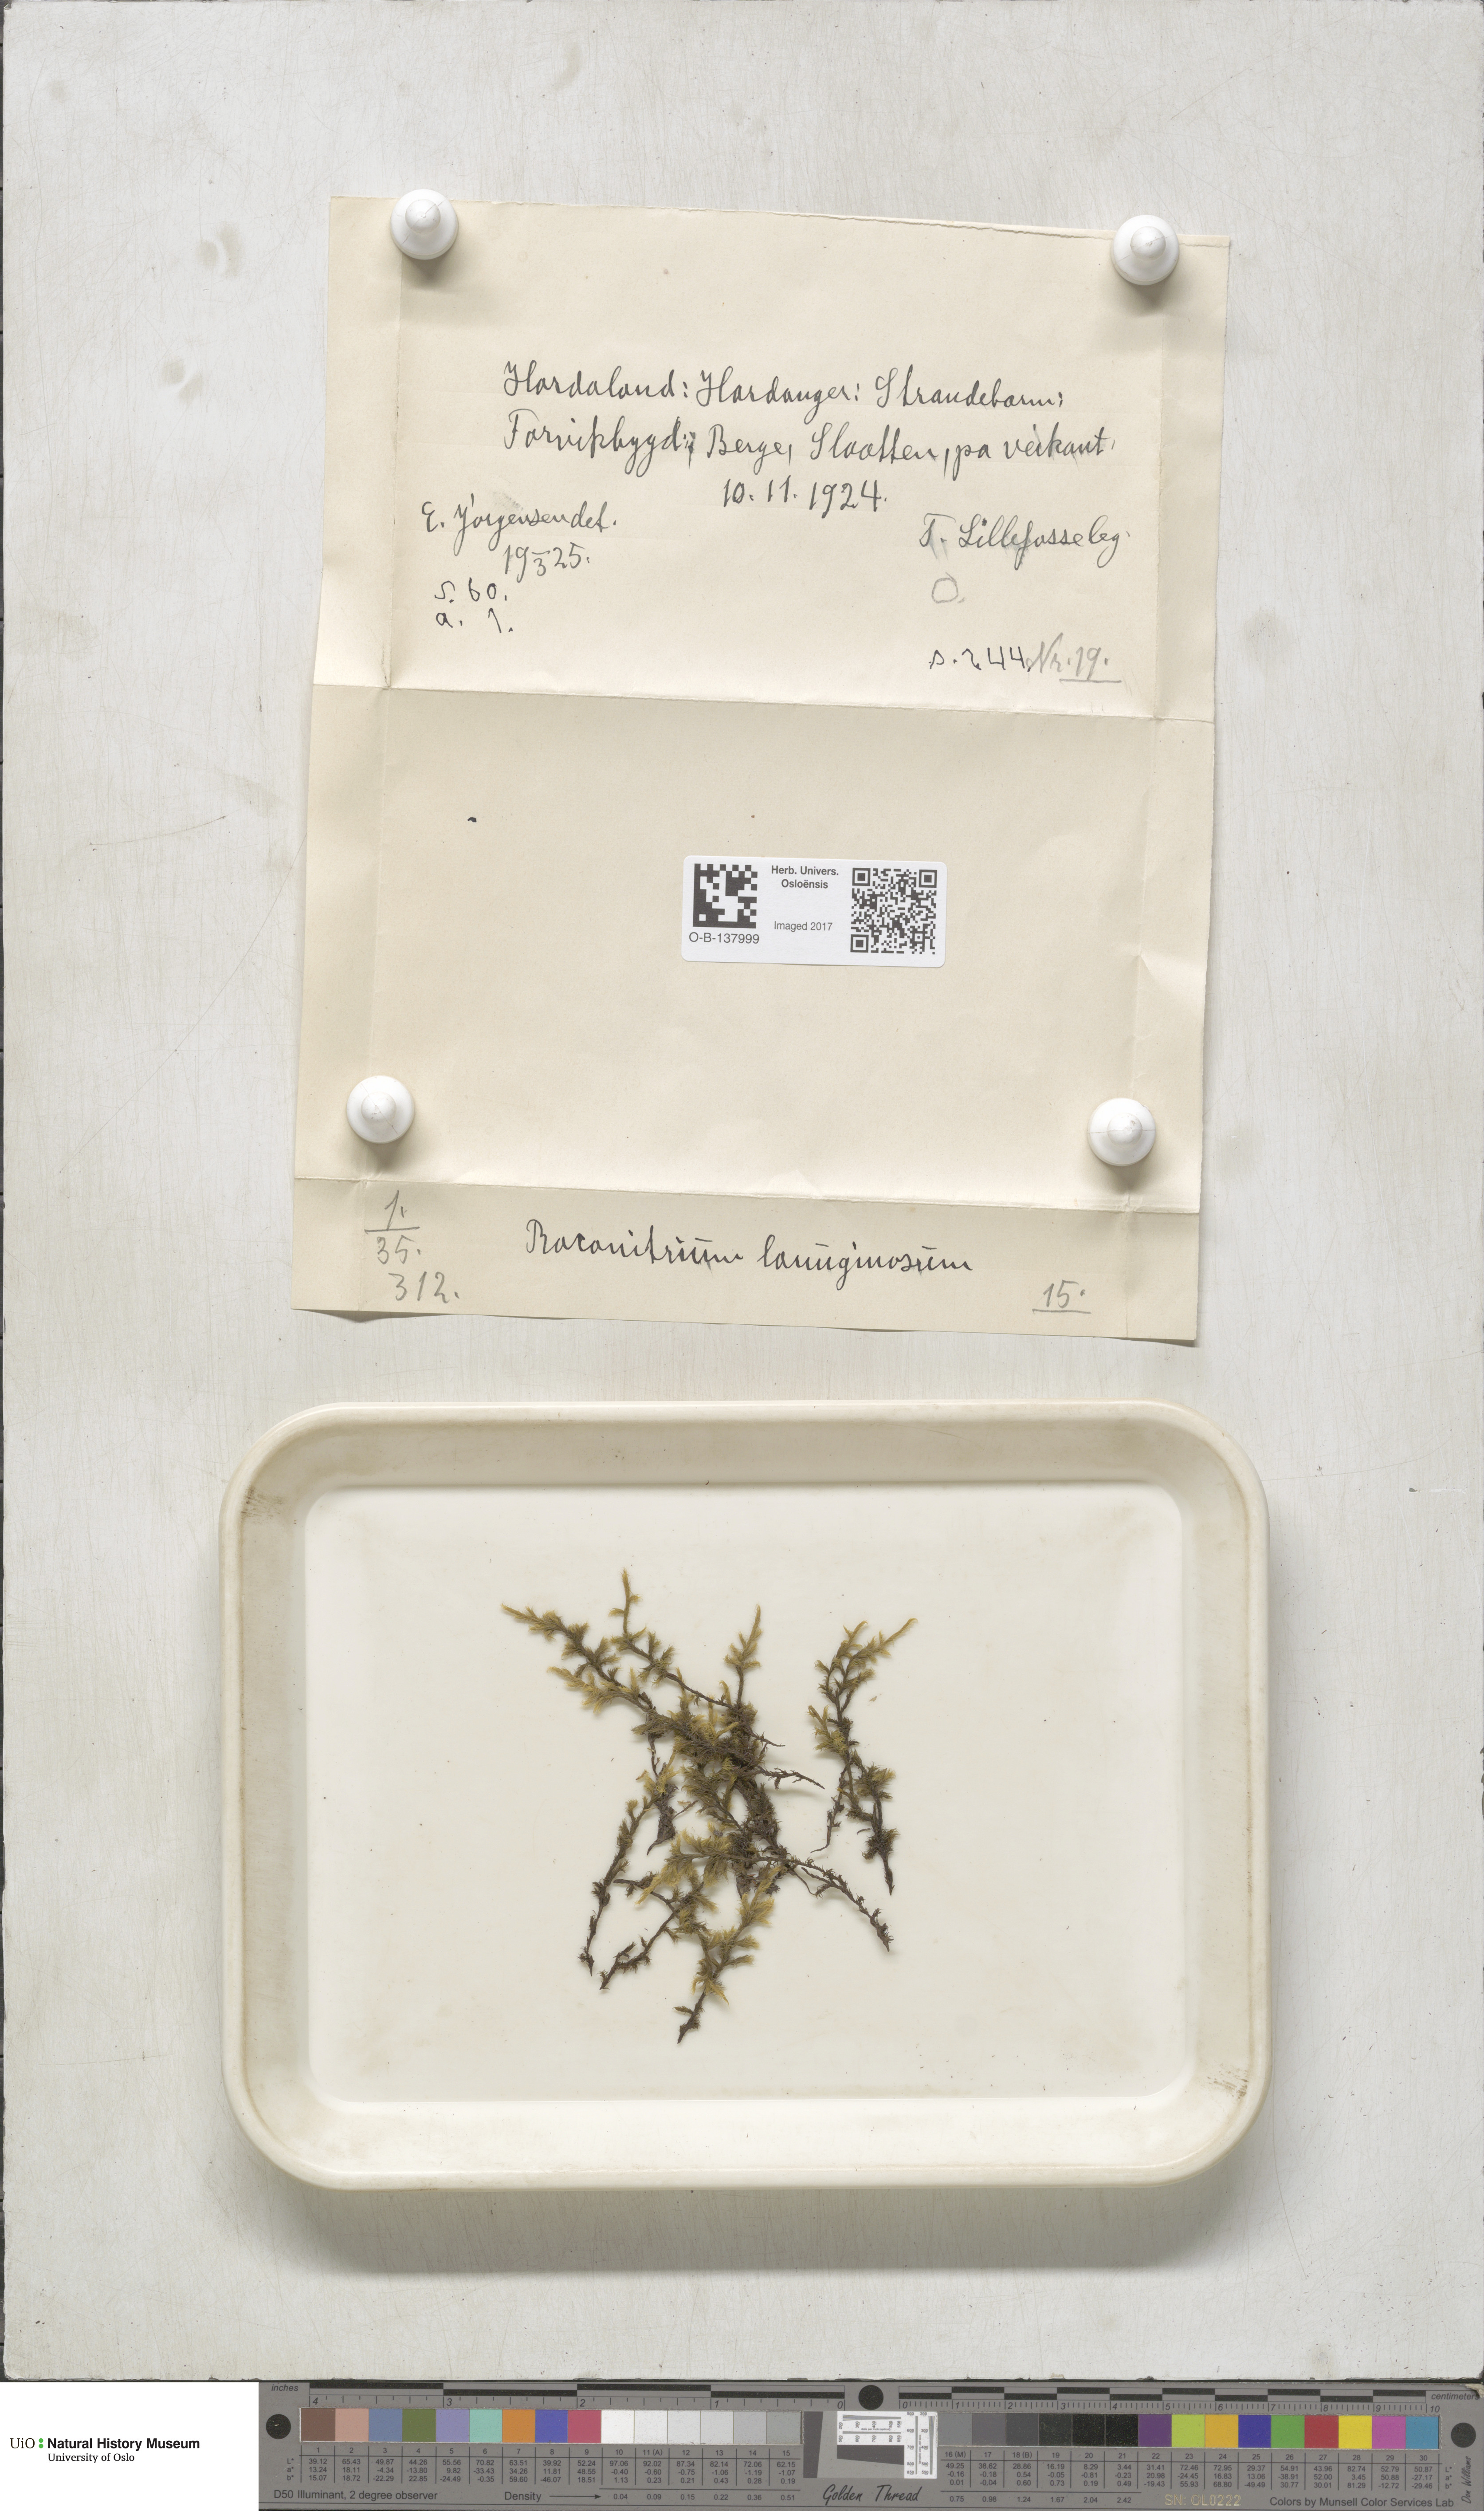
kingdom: Plantae
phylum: Bryophyta
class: Bryopsida
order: Grimmiales
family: Grimmiaceae
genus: Racomitrium
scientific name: Racomitrium lanuginosum
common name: Hoary rock moss
